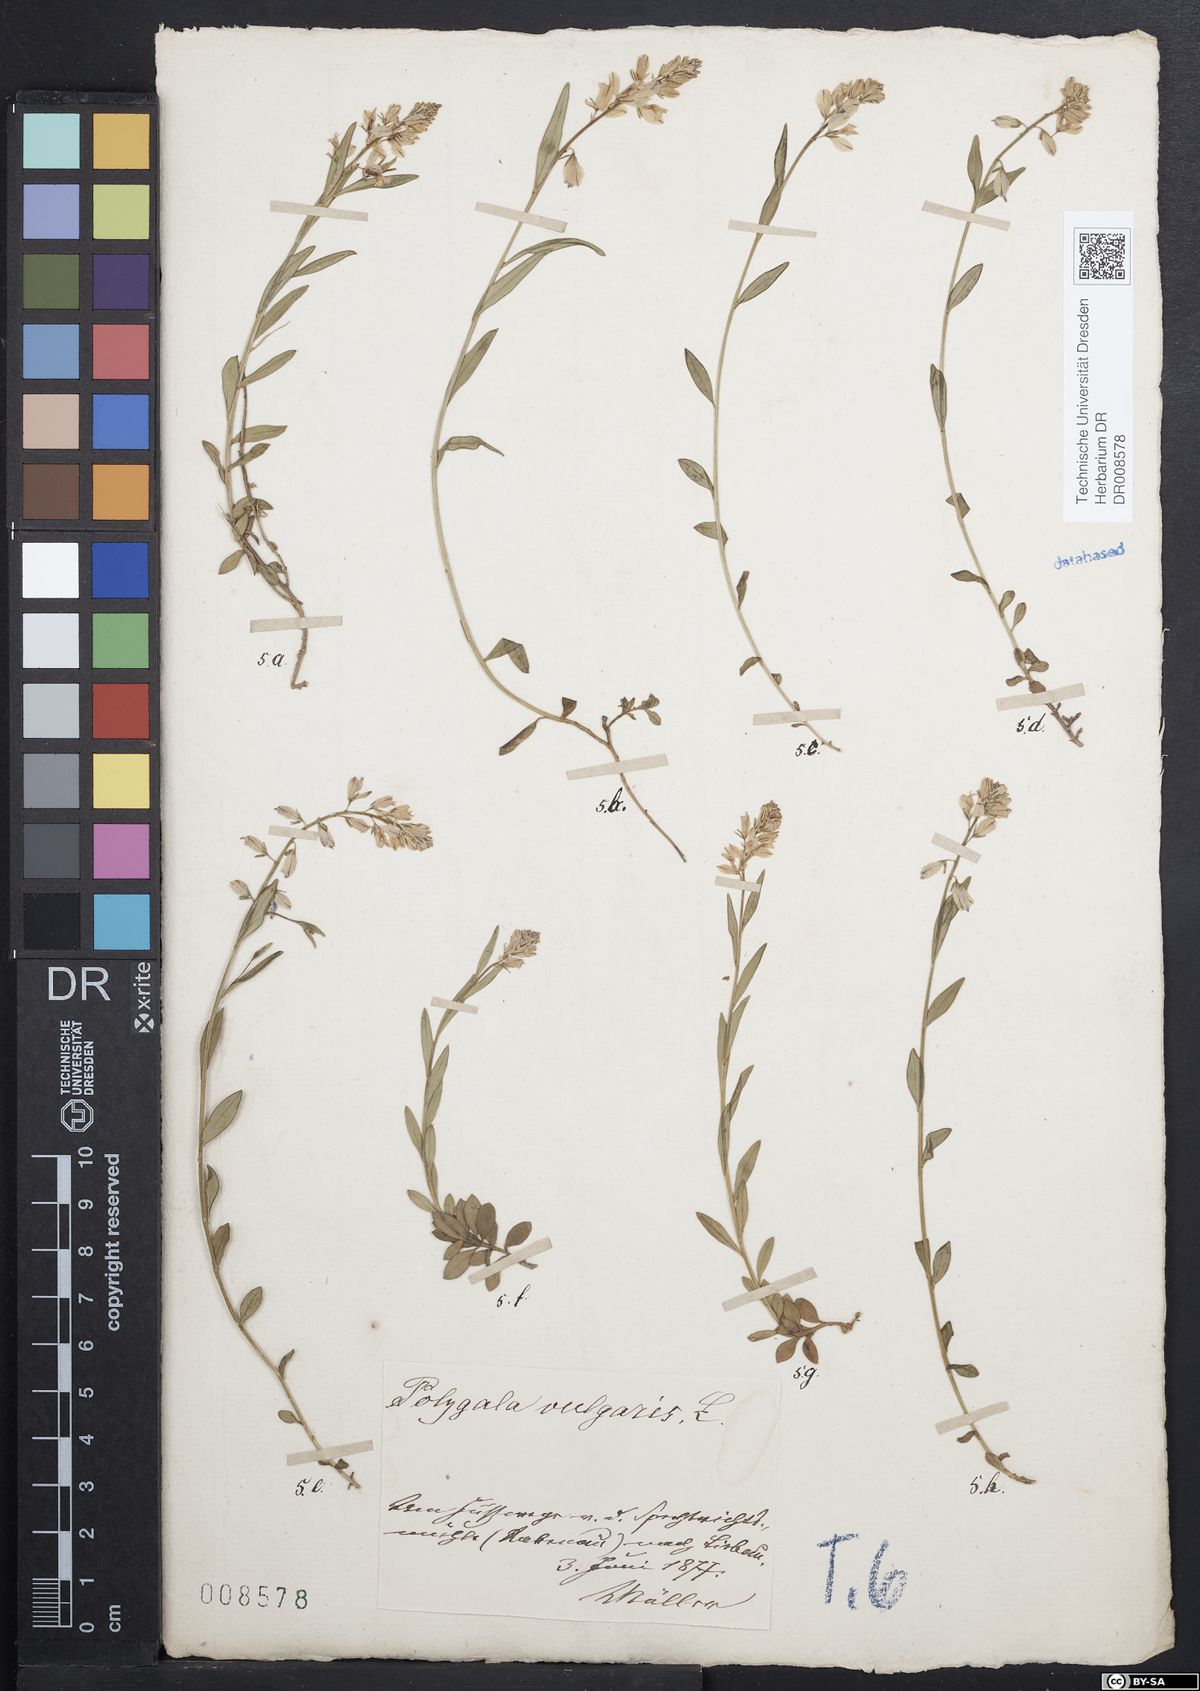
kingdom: Plantae
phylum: Tracheophyta
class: Magnoliopsida
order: Fabales
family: Polygalaceae
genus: Polygala
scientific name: Polygala vulgaris
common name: Common milkwort
